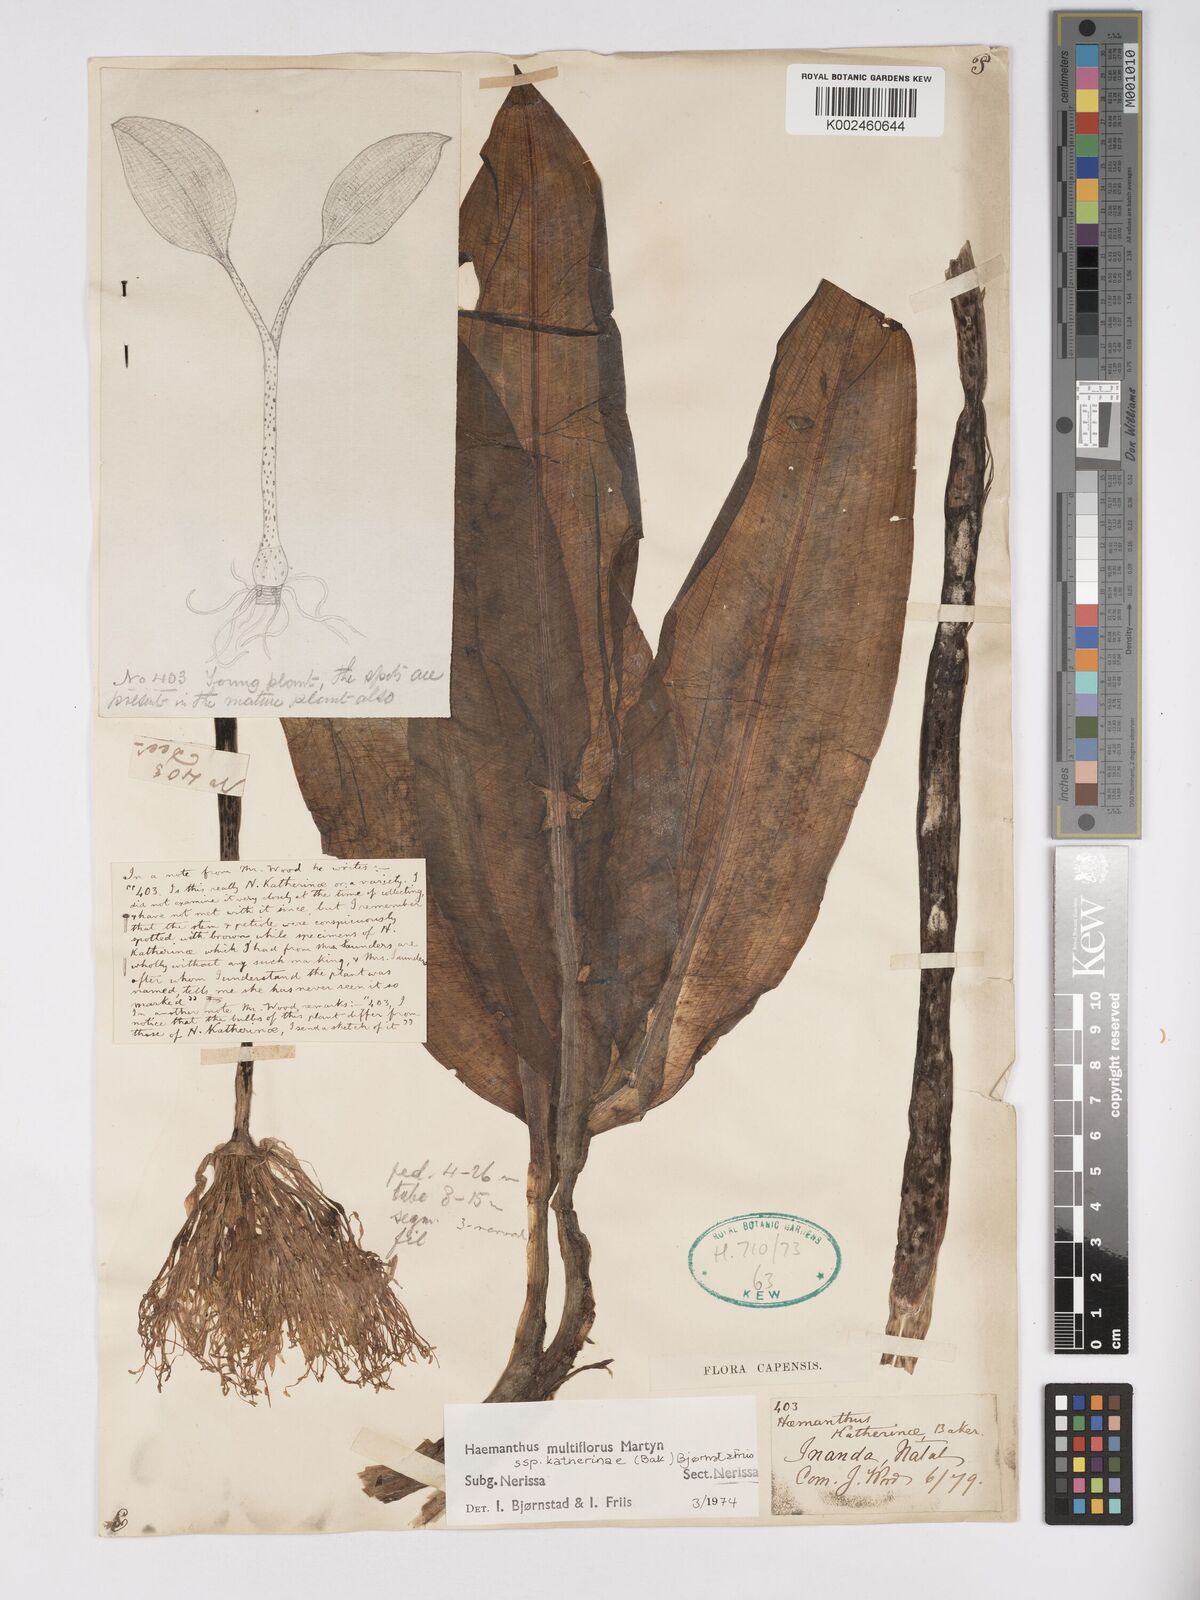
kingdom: Plantae
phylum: Tracheophyta
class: Liliopsida
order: Asparagales
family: Amaryllidaceae
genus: Scadoxus
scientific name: Scadoxus multiflorus
